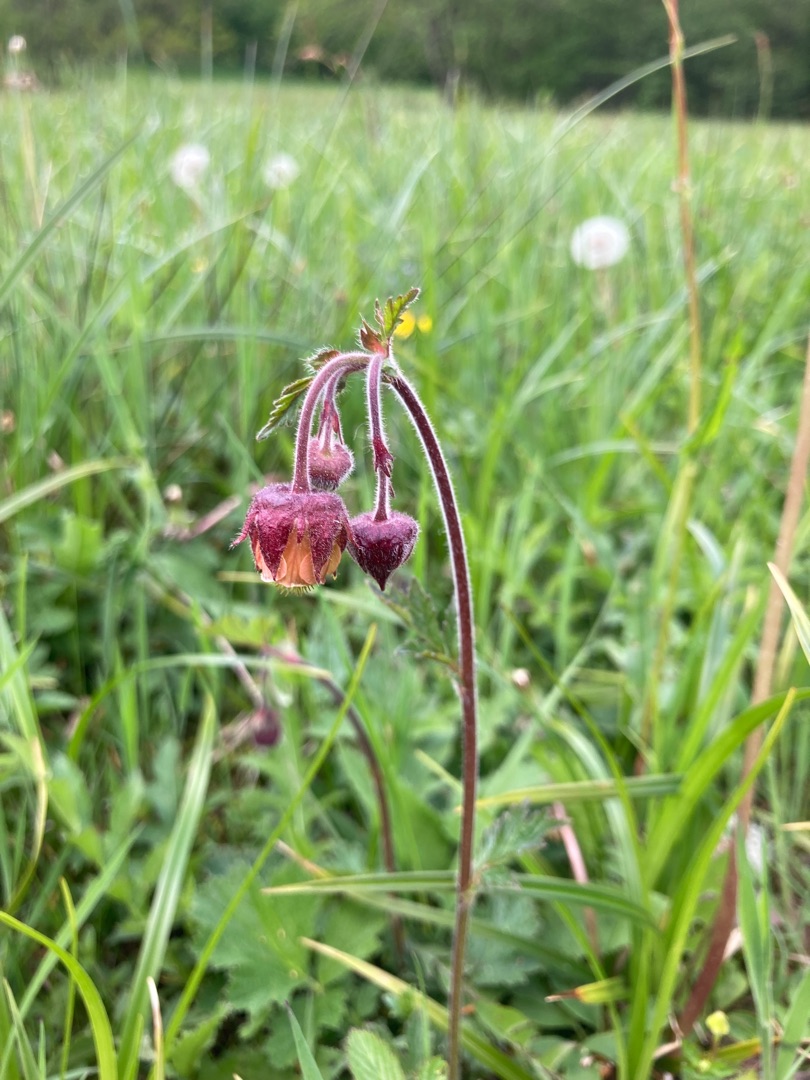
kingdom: Plantae
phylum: Tracheophyta
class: Magnoliopsida
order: Rosales
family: Rosaceae
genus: Geum
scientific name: Geum rivale
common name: Eng-nellikerod
